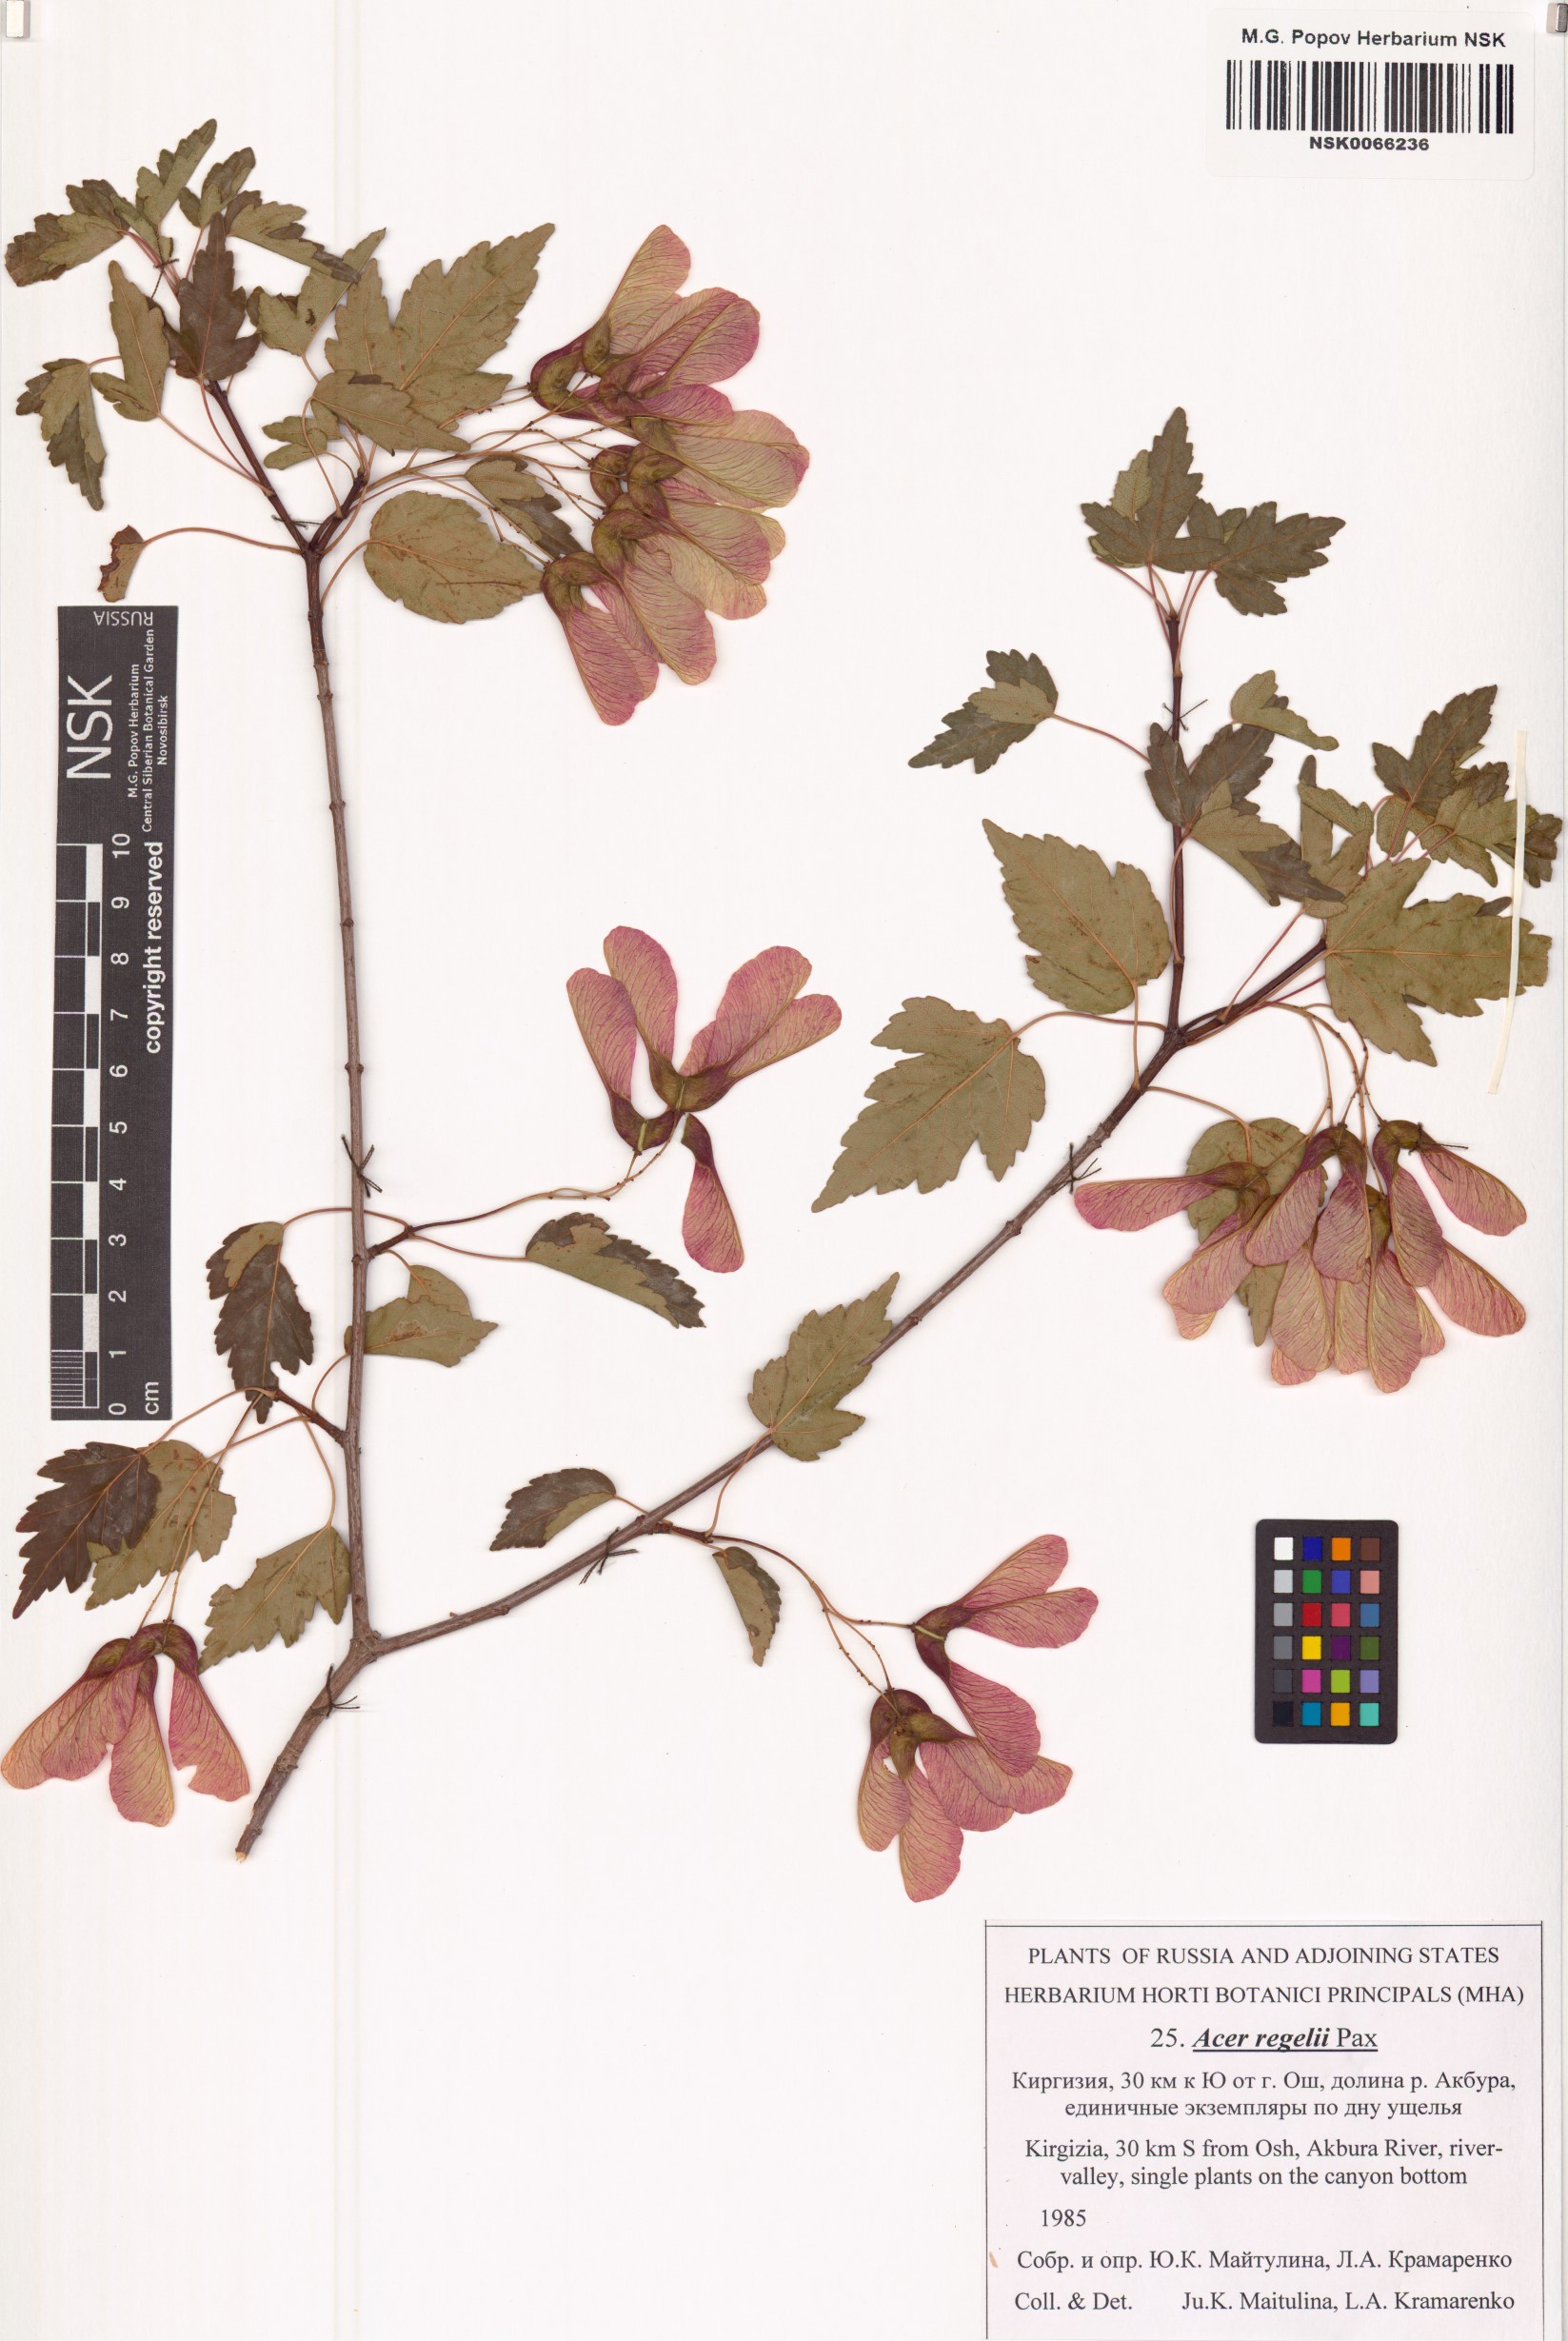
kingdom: Plantae
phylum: Tracheophyta
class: Magnoliopsida
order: Sapindales
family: Sapindaceae
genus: Acer
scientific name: Acer pentapomicum
